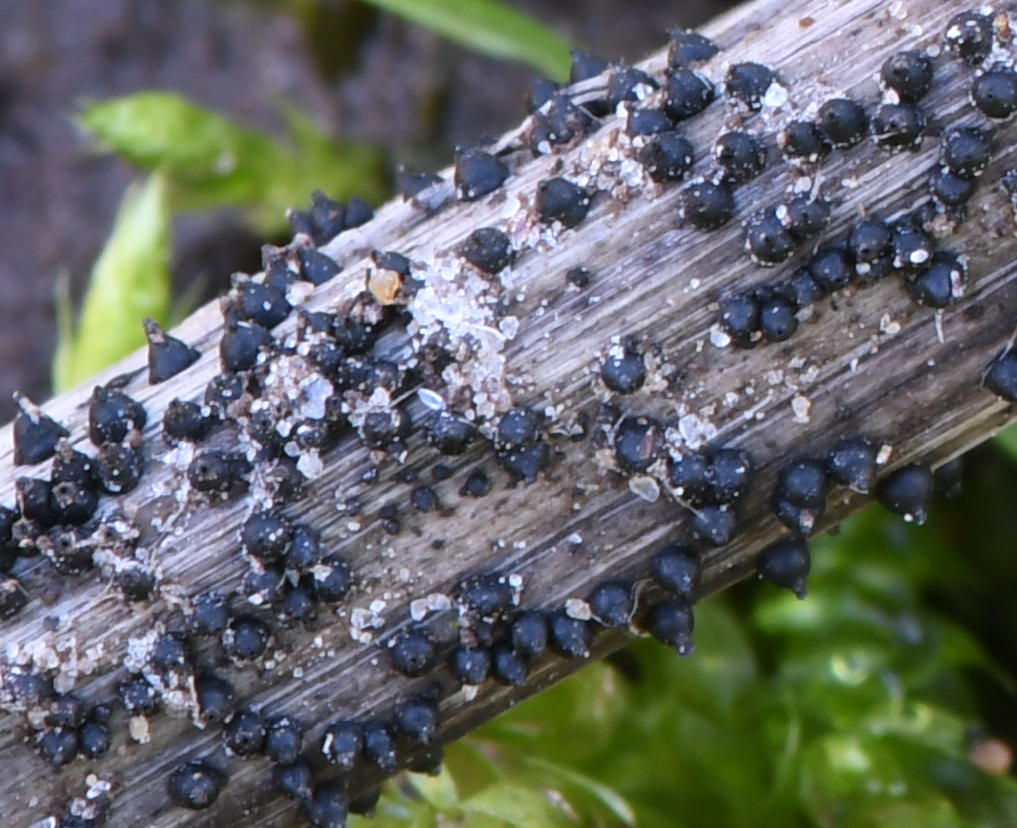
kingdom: Fungi
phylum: Ascomycota
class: Dothideomycetes
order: Pleosporales
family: Leptosphaeriaceae
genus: Leptosphaeria
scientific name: Leptosphaeria
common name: kulkegle
